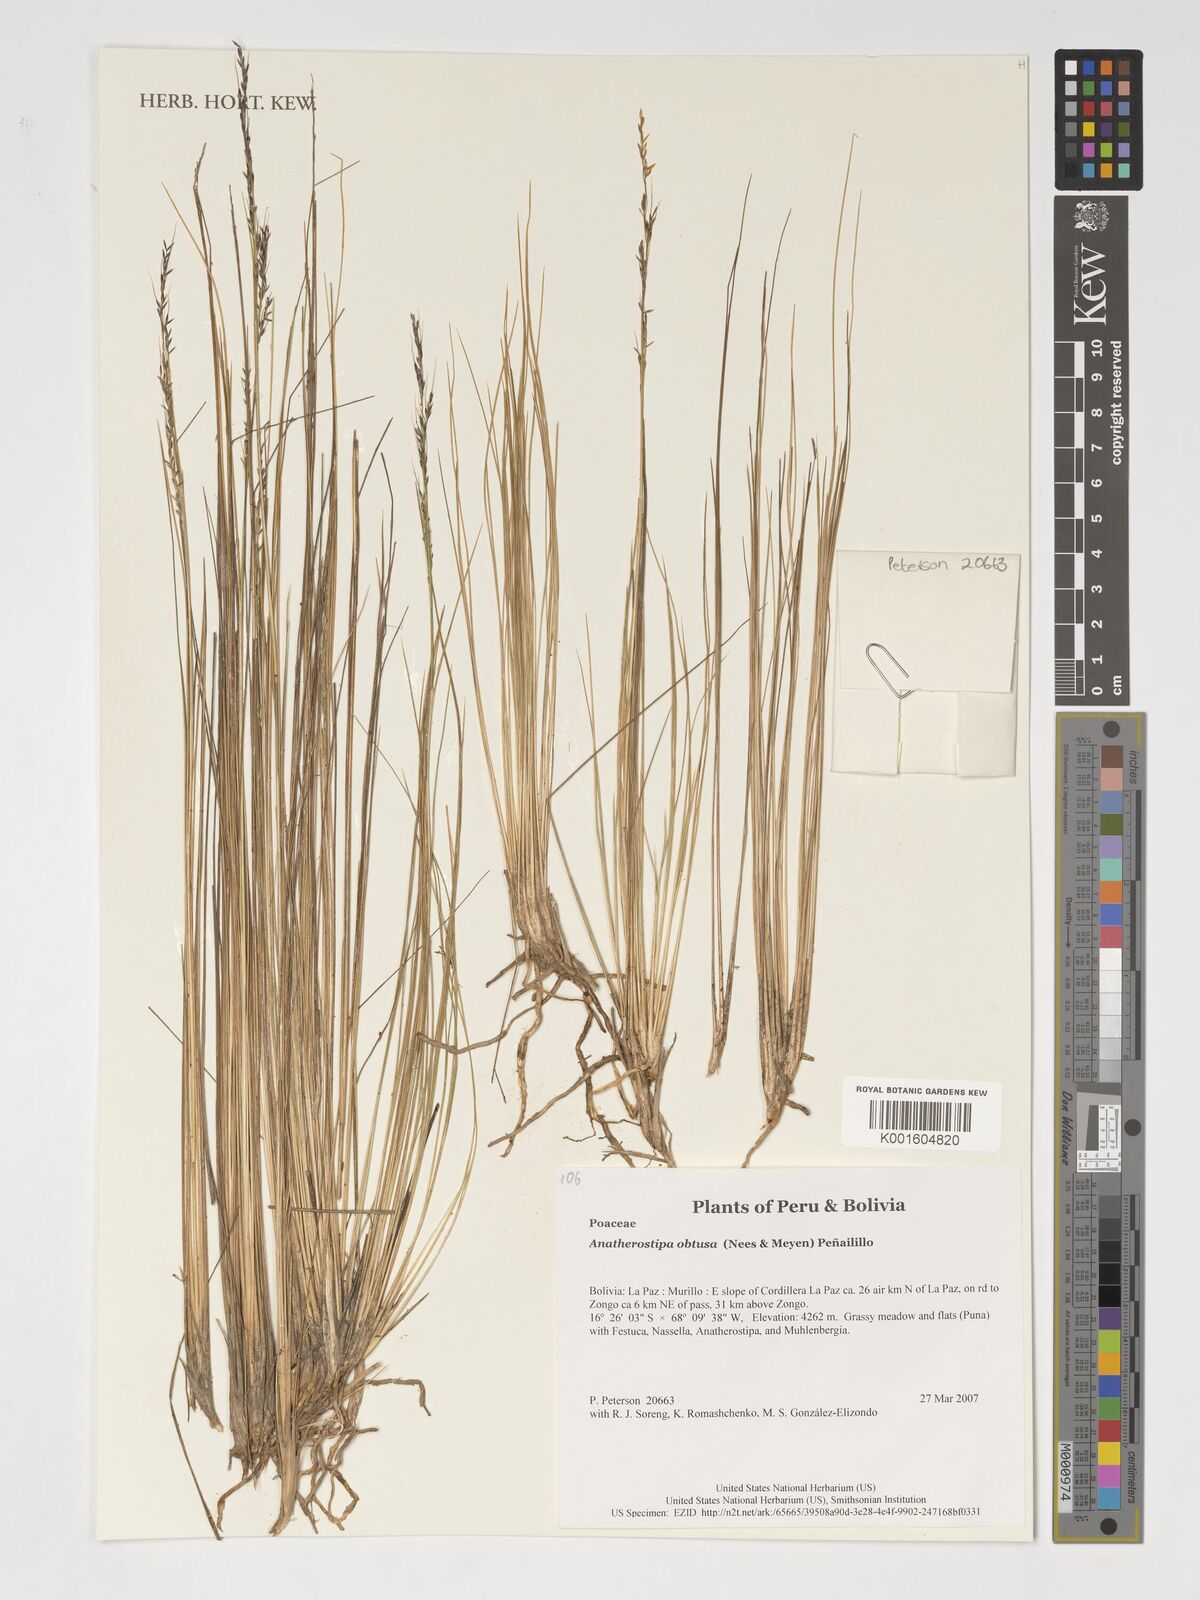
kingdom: Plantae
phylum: Tracheophyta
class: Liliopsida
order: Poales
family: Poaceae
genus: Stipa
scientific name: Stipa obtusa
